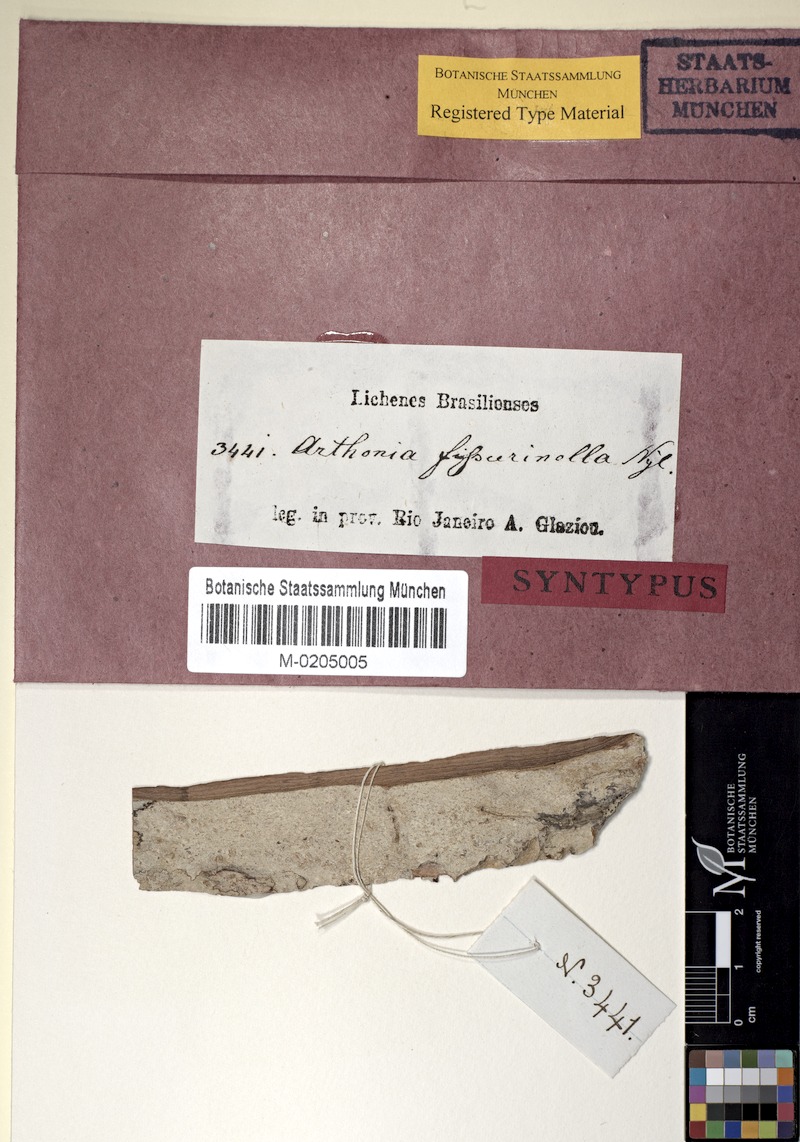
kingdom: Fungi
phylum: Ascomycota
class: Arthoniomycetes
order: Arthoniales
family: Arthoniaceae
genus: Arthonia
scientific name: Arthonia fissurina
